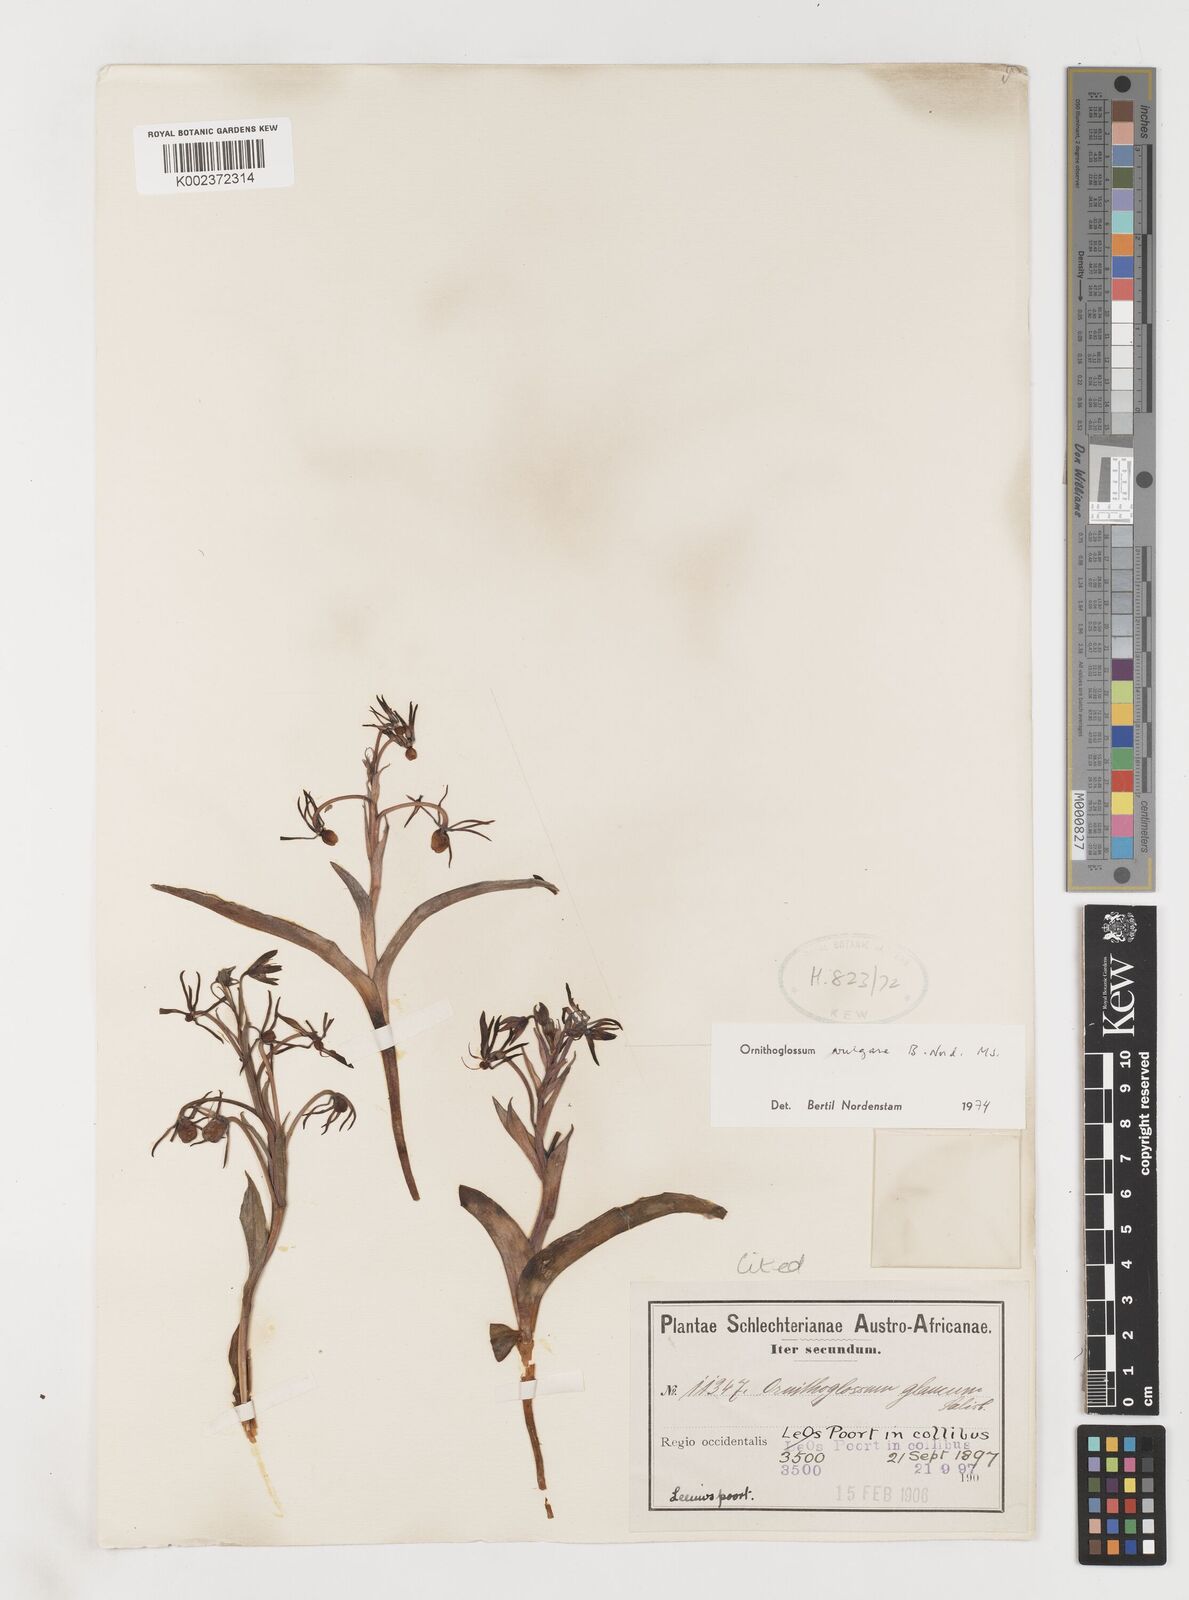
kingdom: Plantae
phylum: Tracheophyta
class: Liliopsida
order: Liliales
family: Colchicaceae
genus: Ornithoglossum
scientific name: Ornithoglossum vulgare
